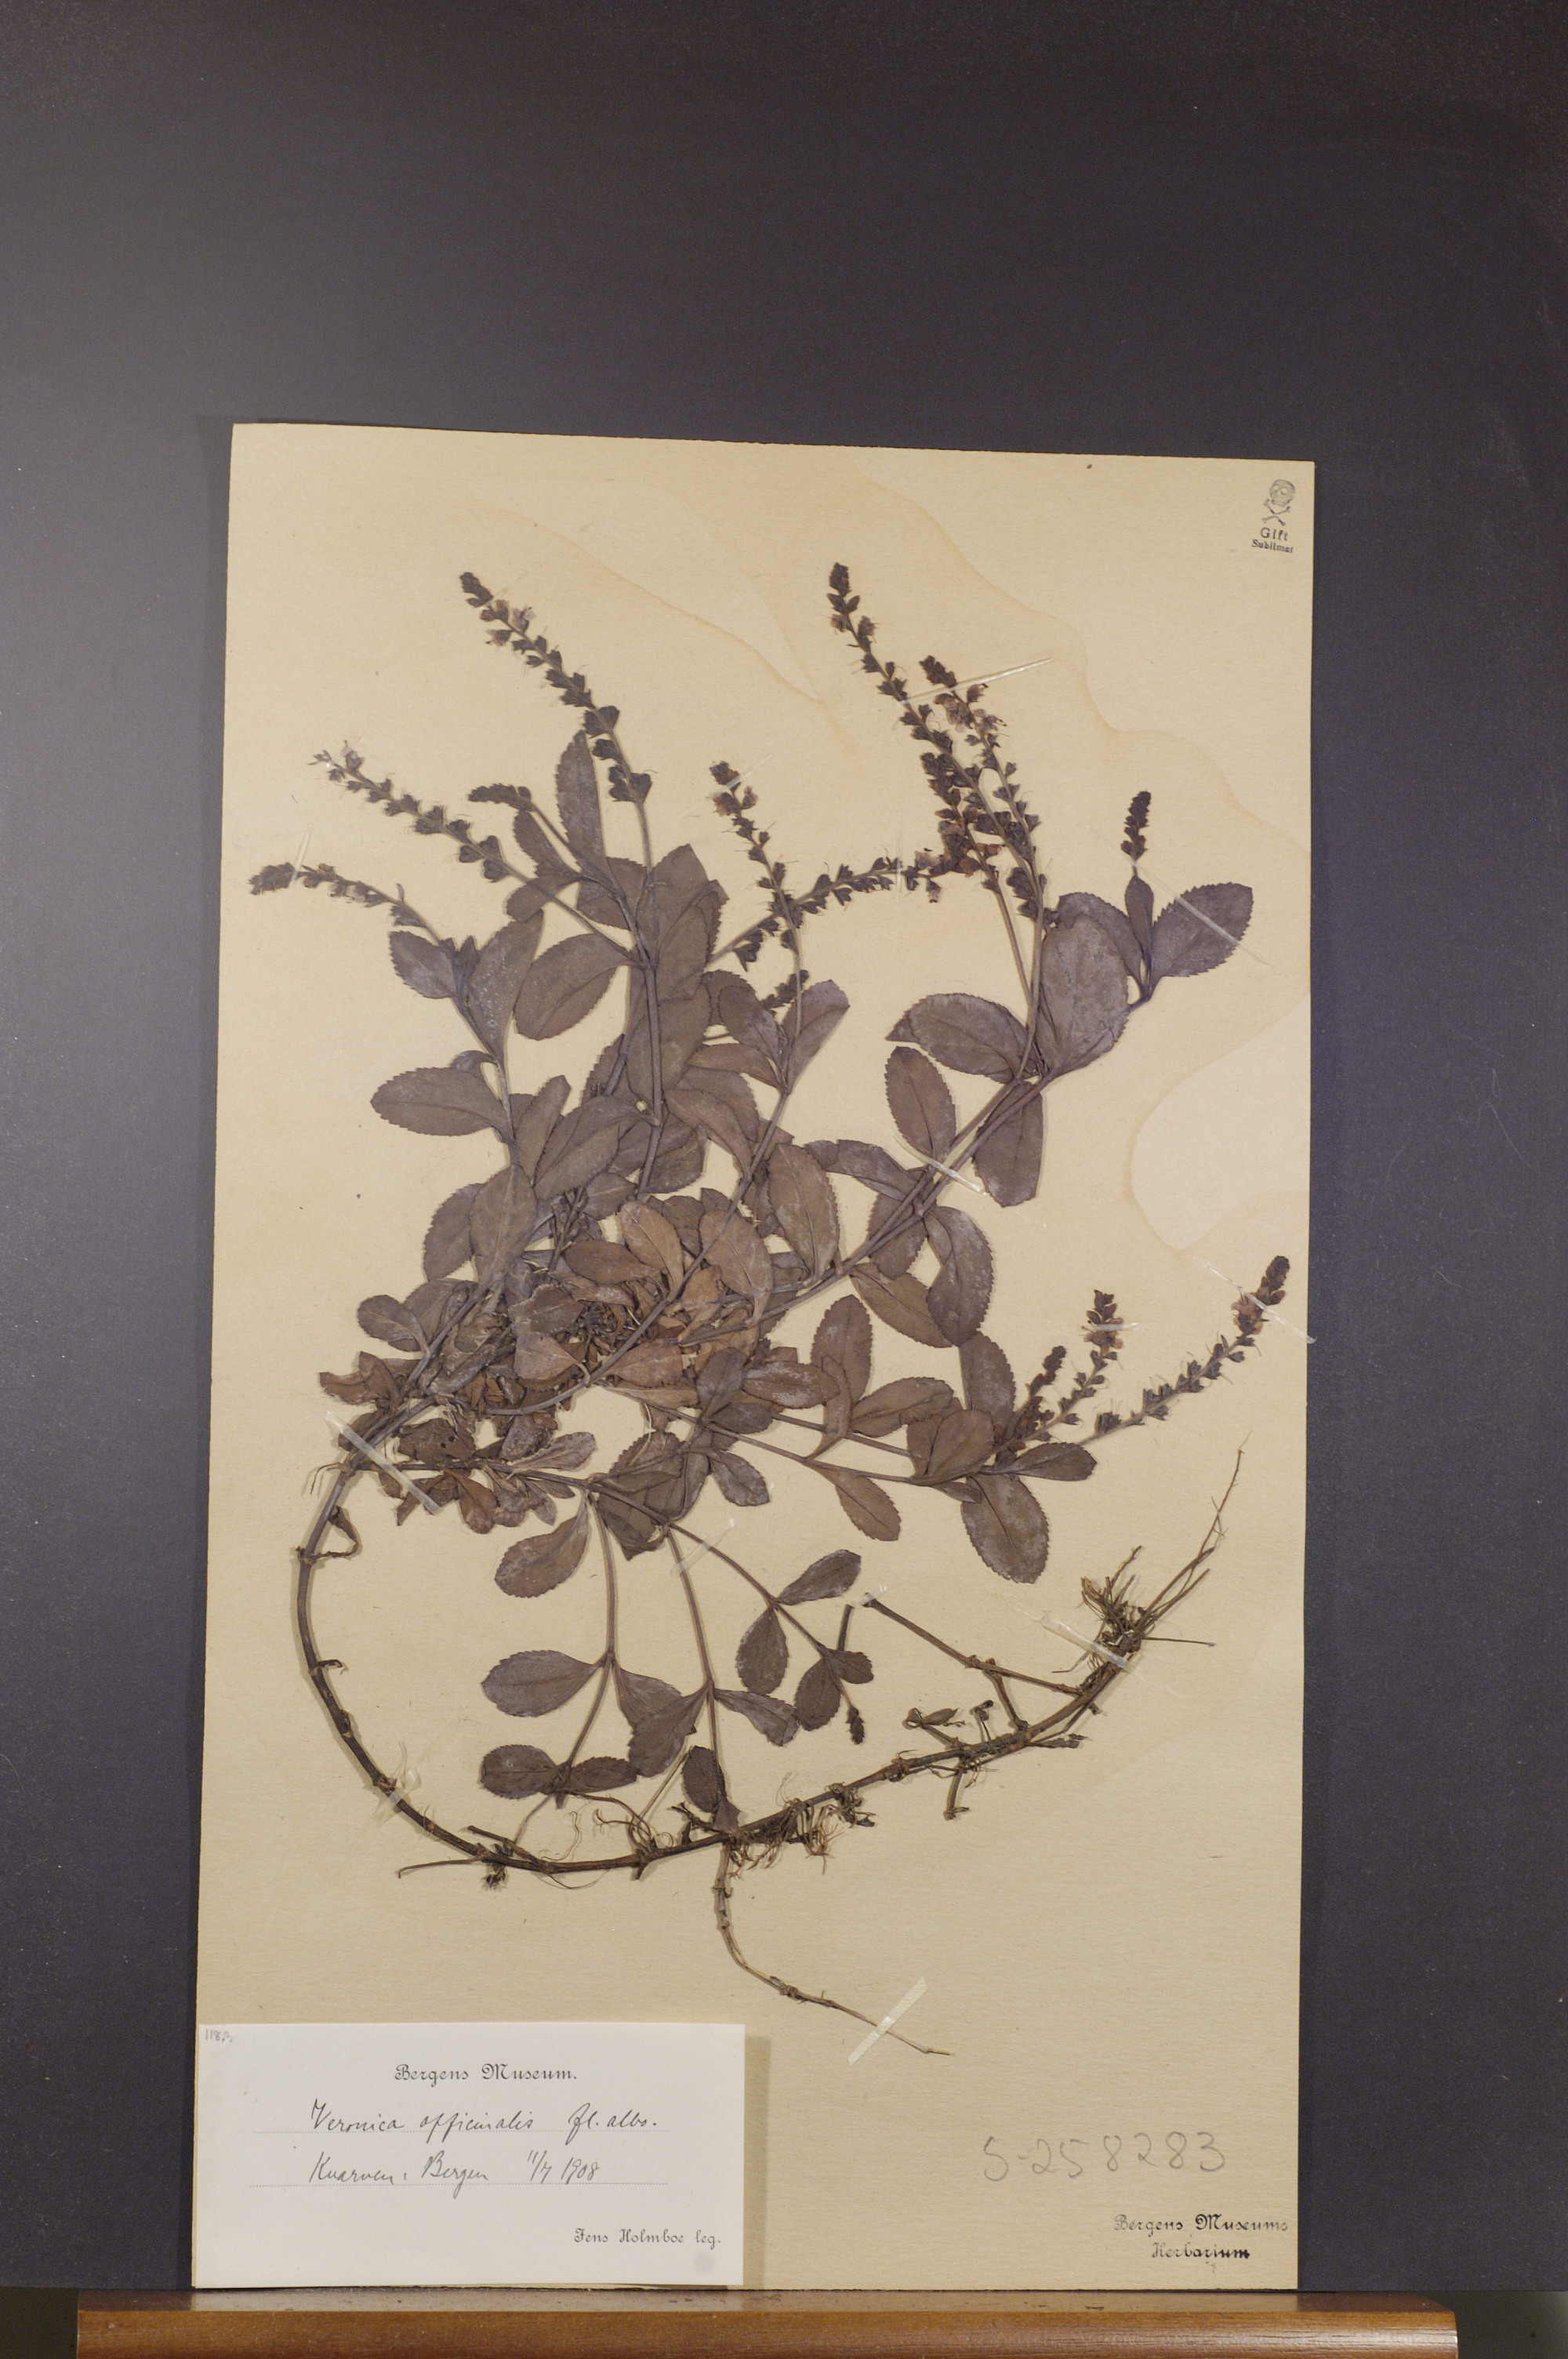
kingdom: Plantae
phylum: Tracheophyta
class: Magnoliopsida
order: Lamiales
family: Plantaginaceae
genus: Veronica
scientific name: Veronica officinalis
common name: Common speedwell
